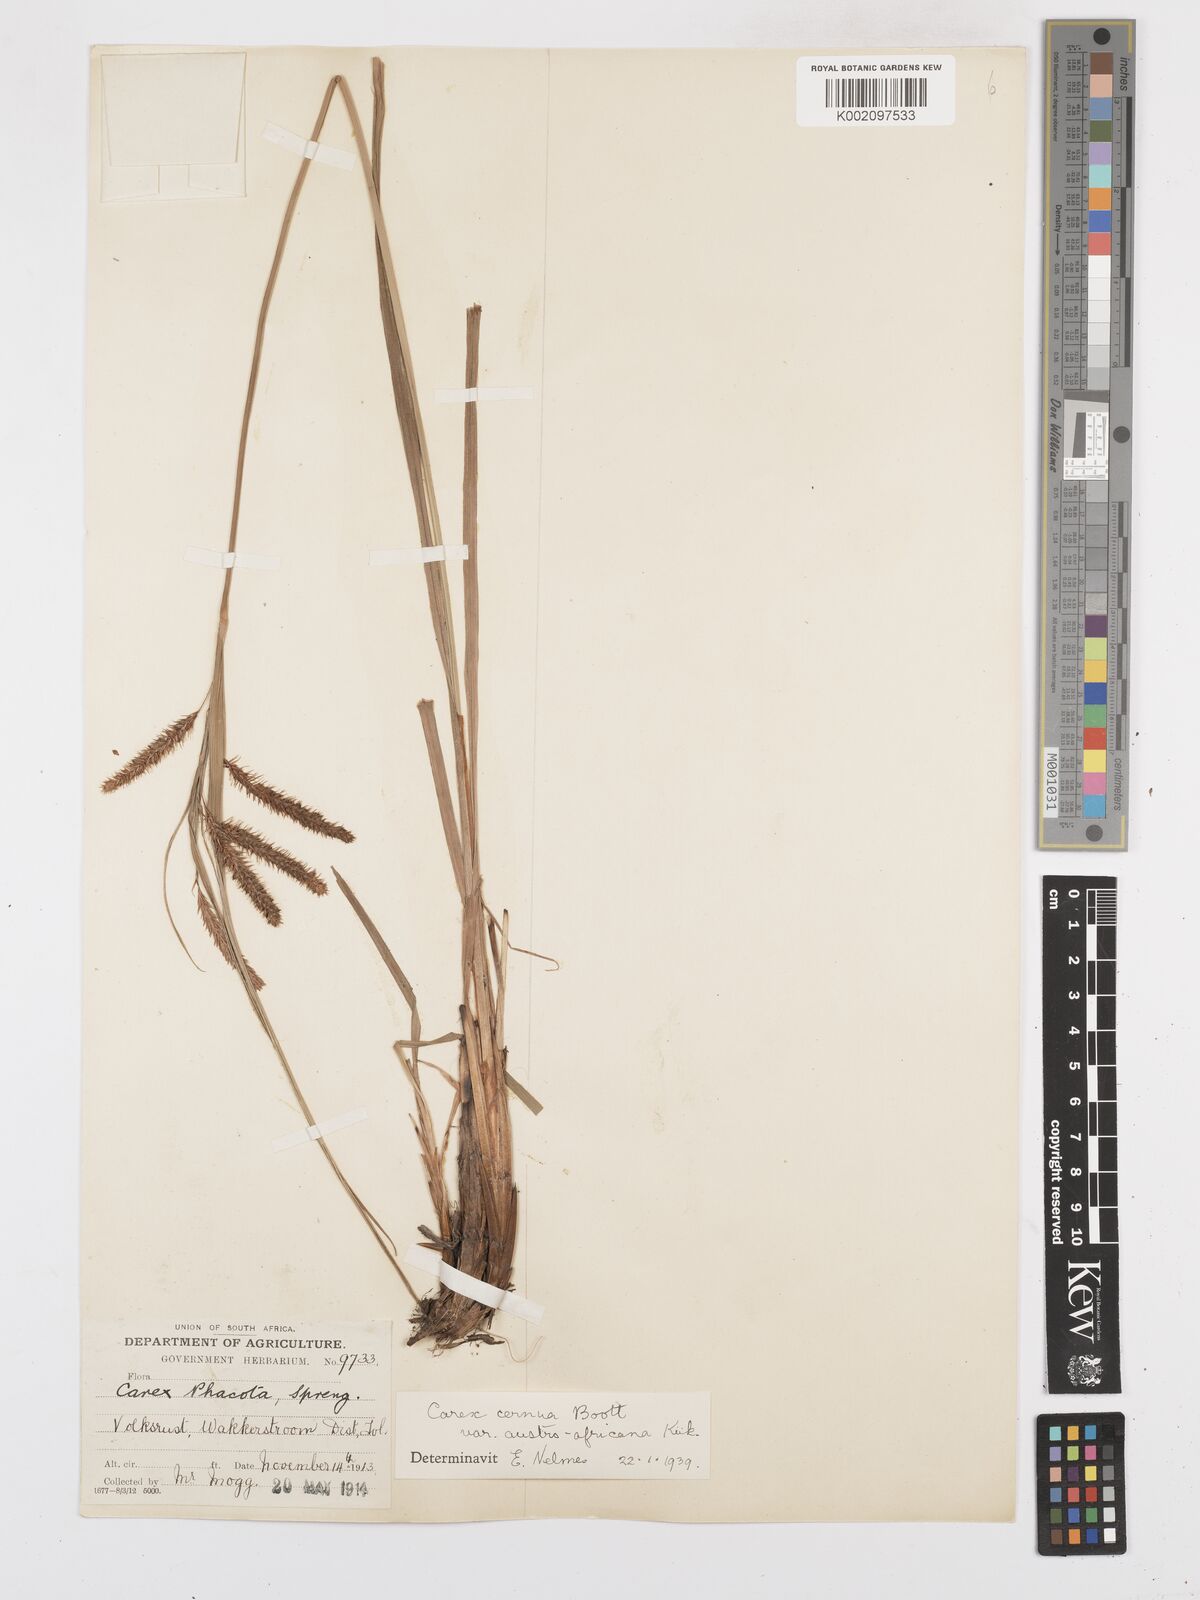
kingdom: Plantae
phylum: Tracheophyta
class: Liliopsida
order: Poales
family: Cyperaceae
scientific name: Cyperaceae
